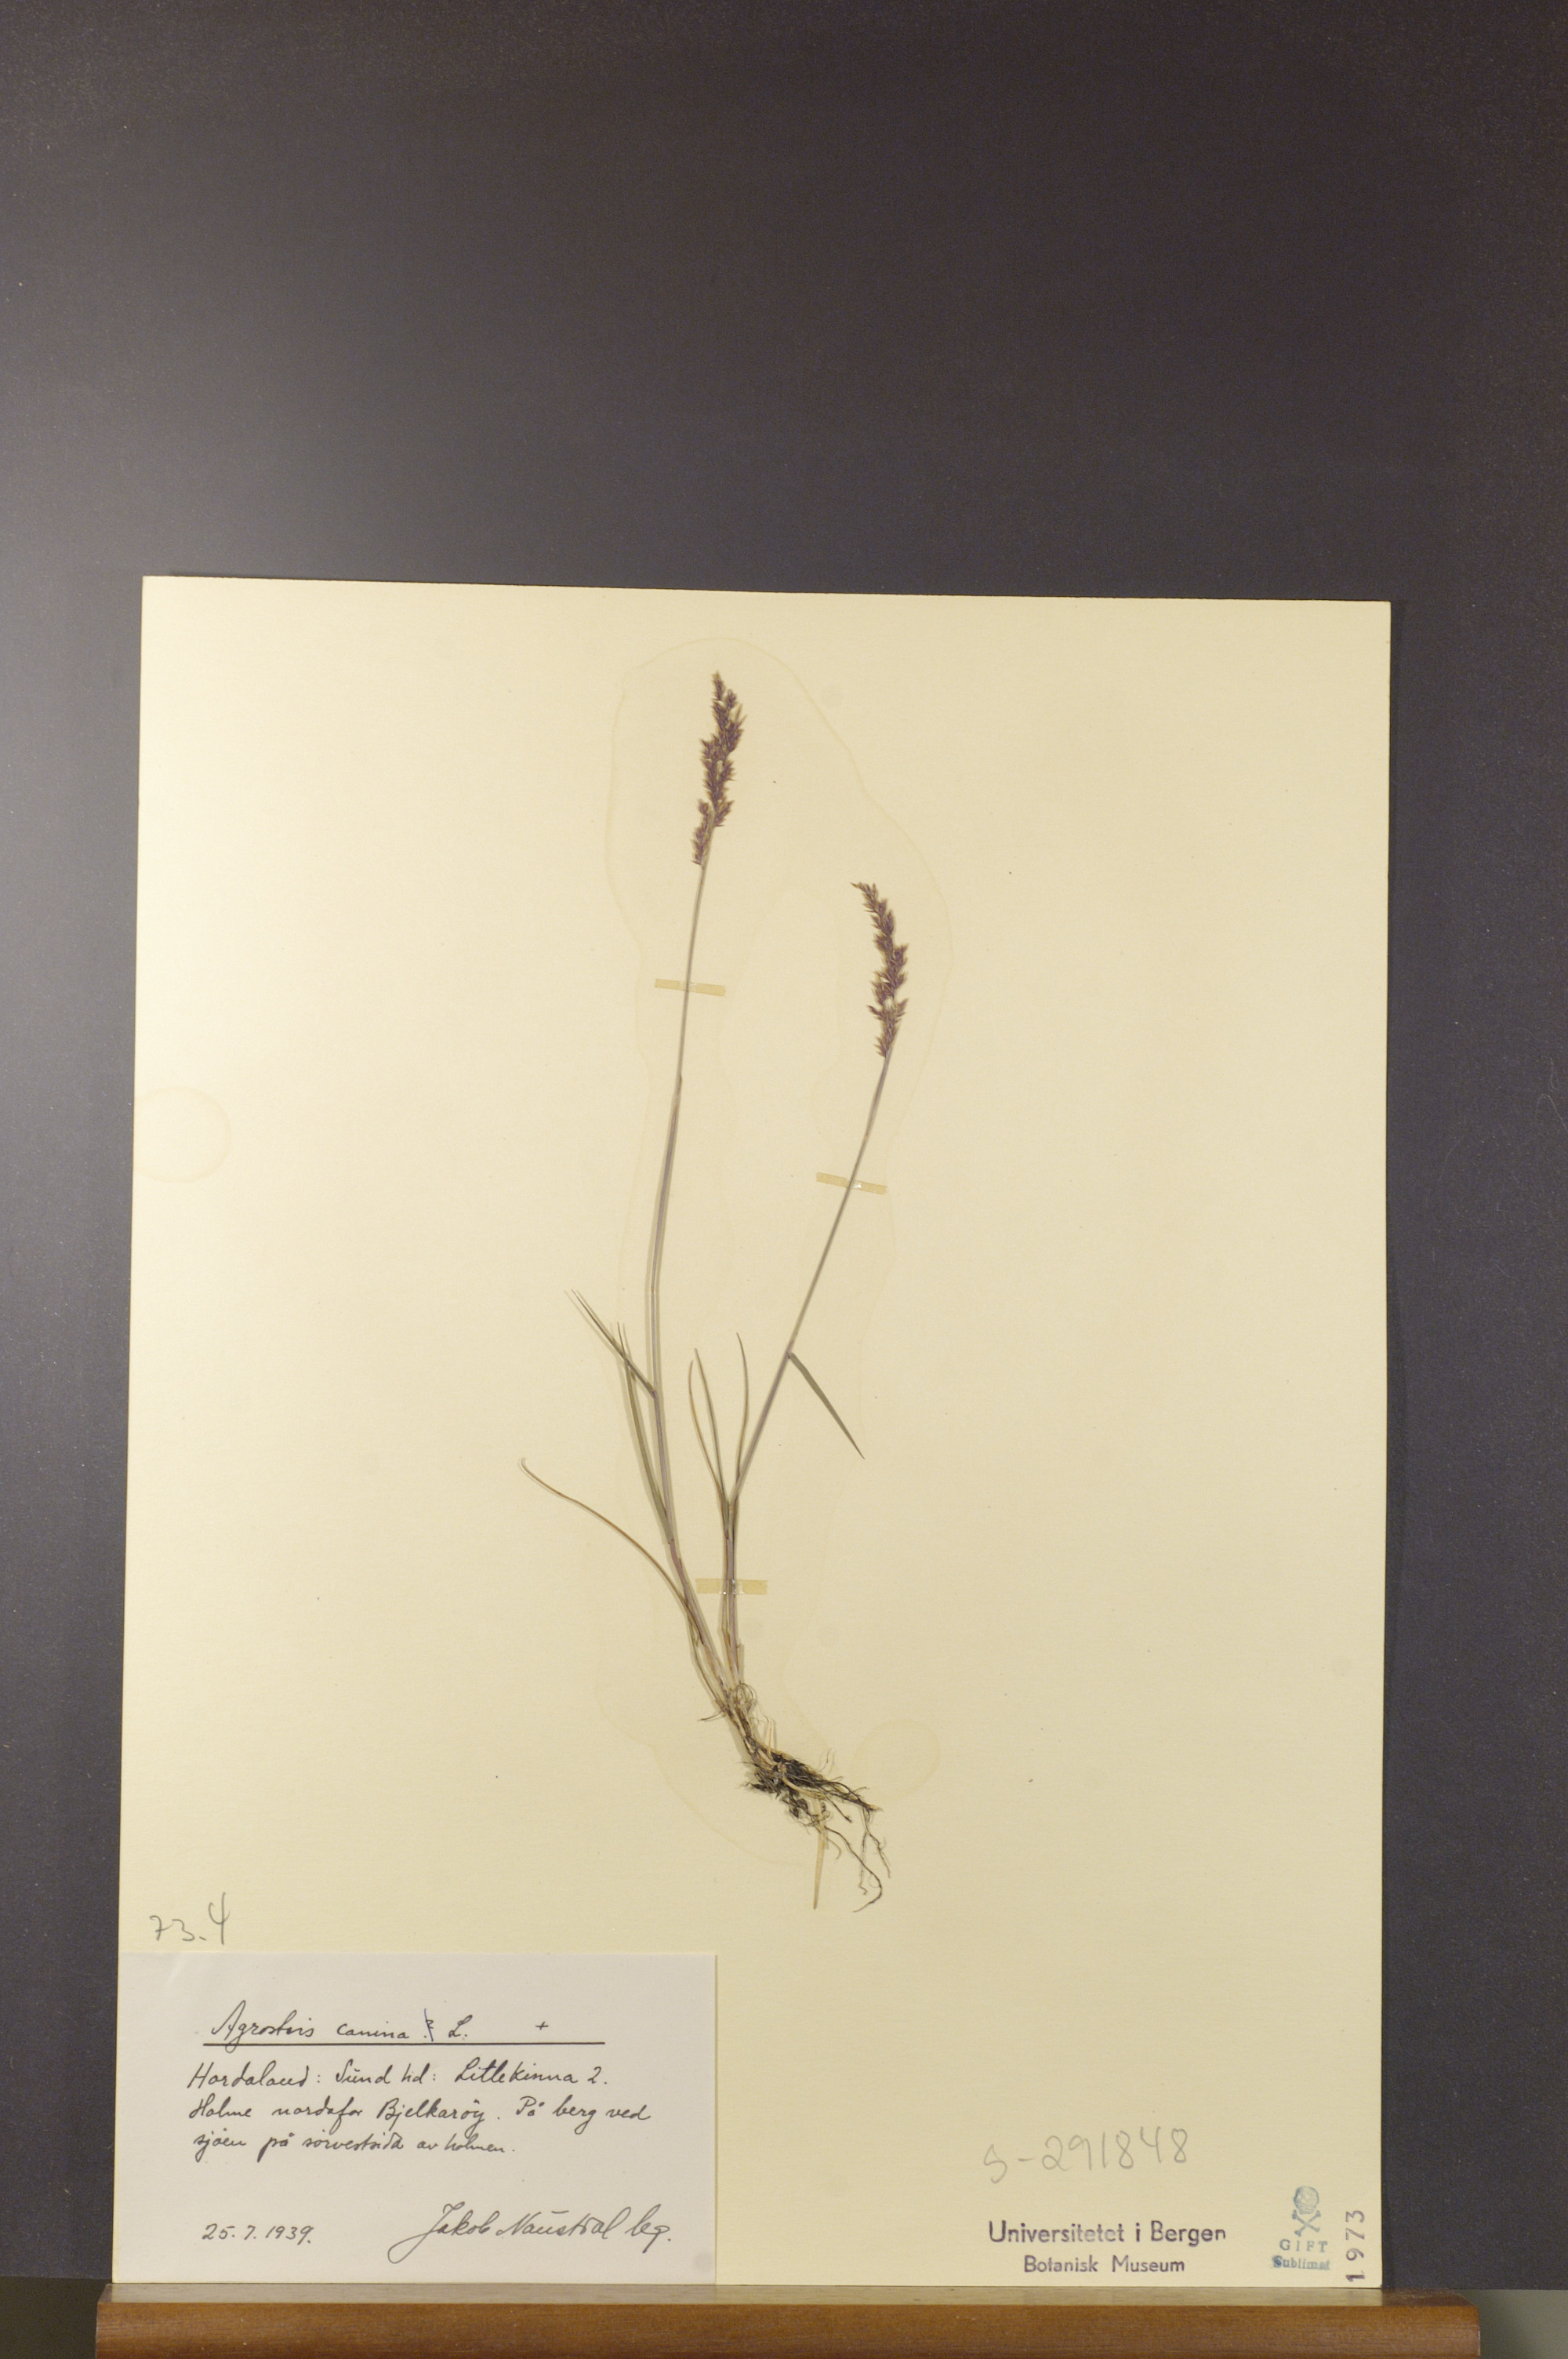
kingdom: Plantae
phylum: Tracheophyta
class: Liliopsida
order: Poales
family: Poaceae
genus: Agrostis
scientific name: Agrostis canina
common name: Velvet bent
